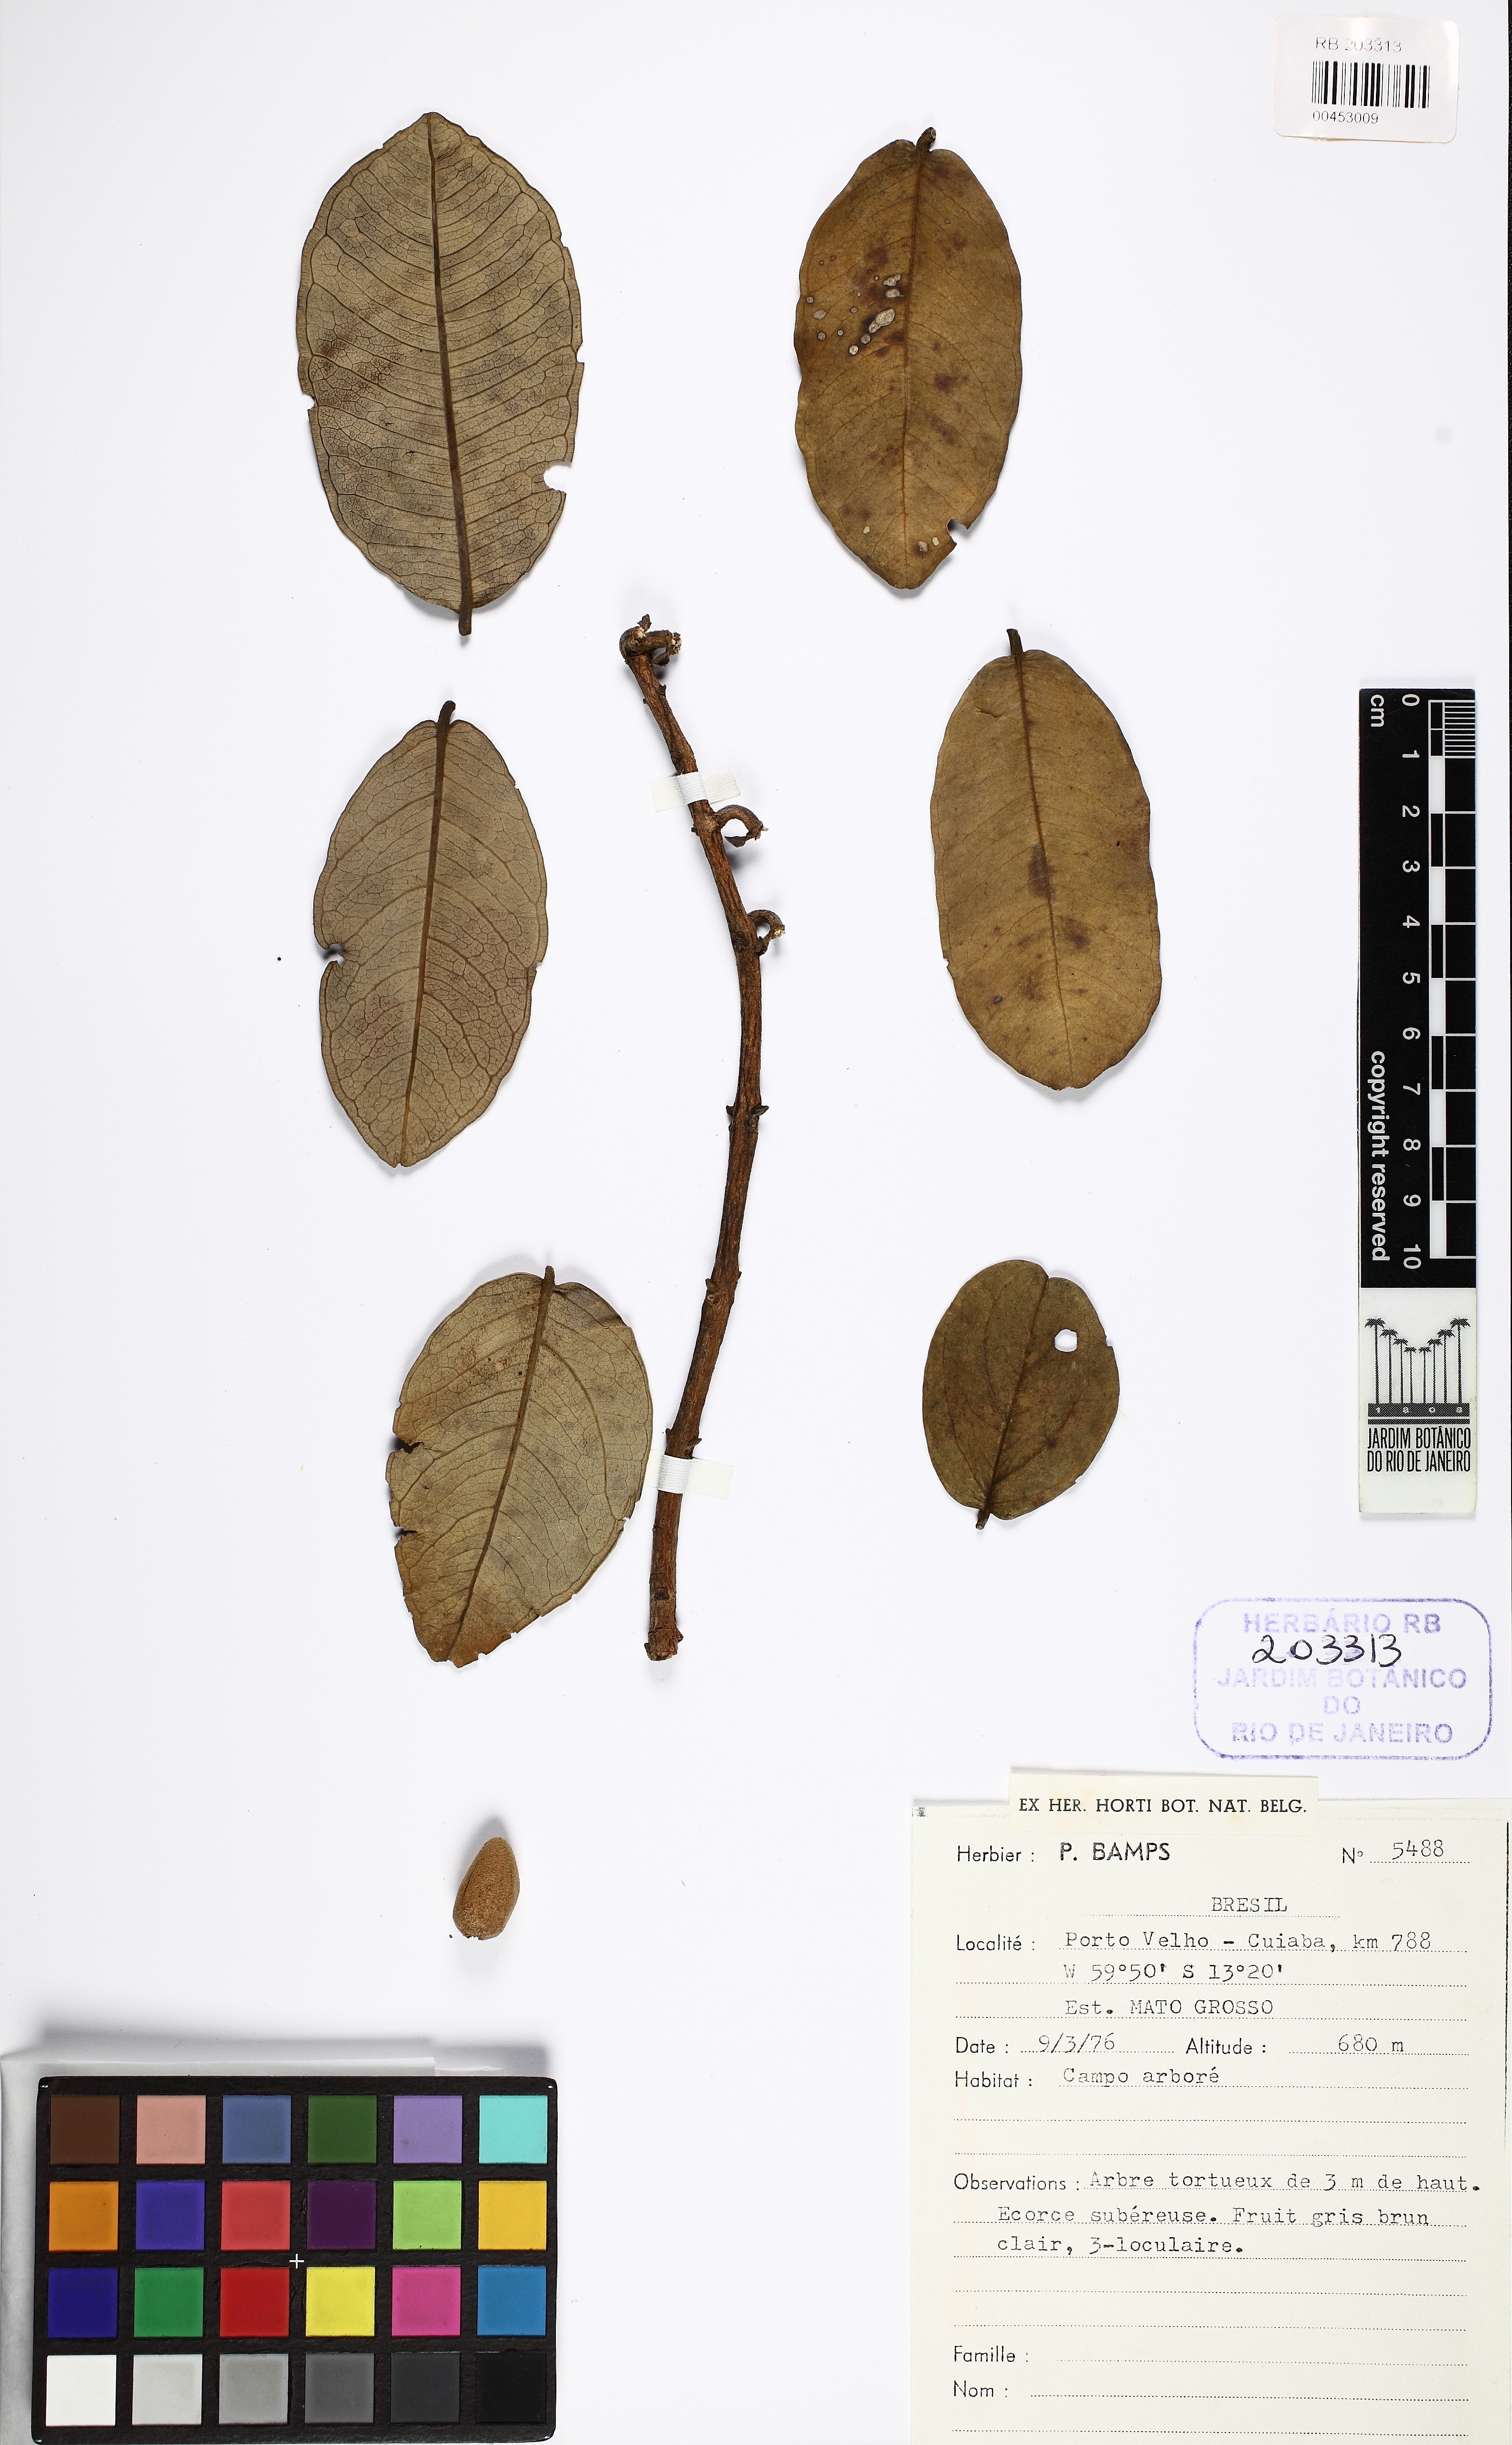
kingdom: Plantae
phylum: Tracheophyta
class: Magnoliopsida
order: Myrtales
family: Vochysiaceae
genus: Qualea
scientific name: Qualea parviflora
